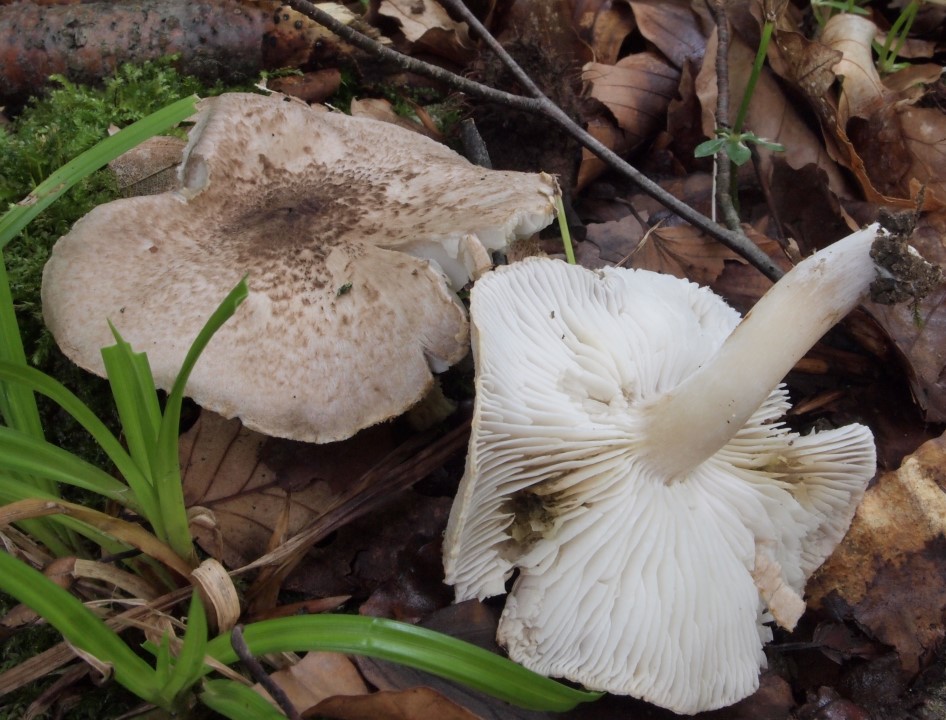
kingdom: Fungi
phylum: Basidiomycota
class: Agaricomycetes
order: Agaricales
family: Tricholomataceae
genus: Tricholoma
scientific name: Tricholoma scalpturatum
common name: gulplettet ridderhat
